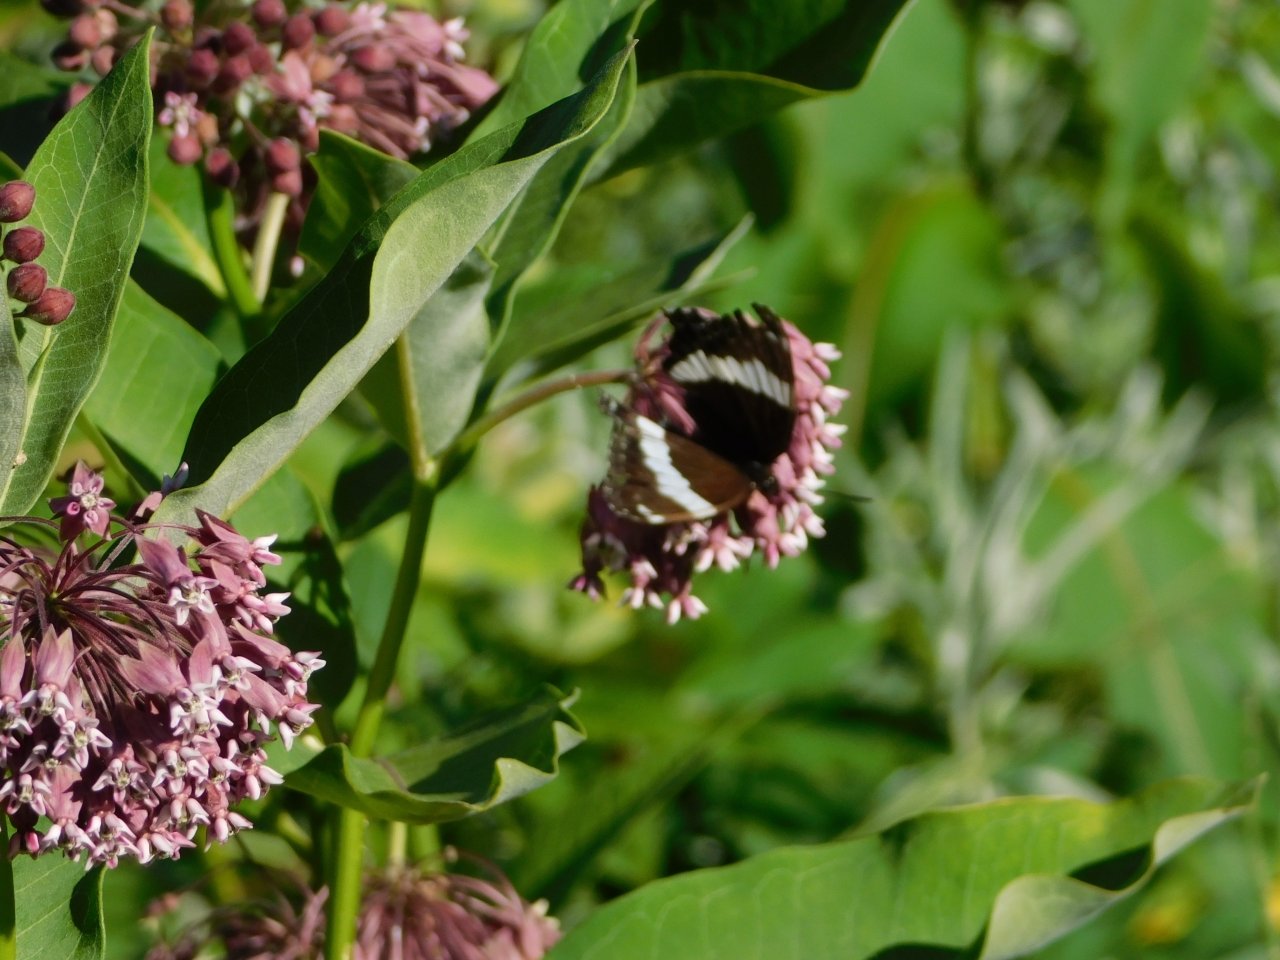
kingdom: Animalia
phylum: Arthropoda
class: Insecta
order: Lepidoptera
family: Nymphalidae
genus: Limenitis
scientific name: Limenitis arthemis
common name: Red-spotted Admiral
